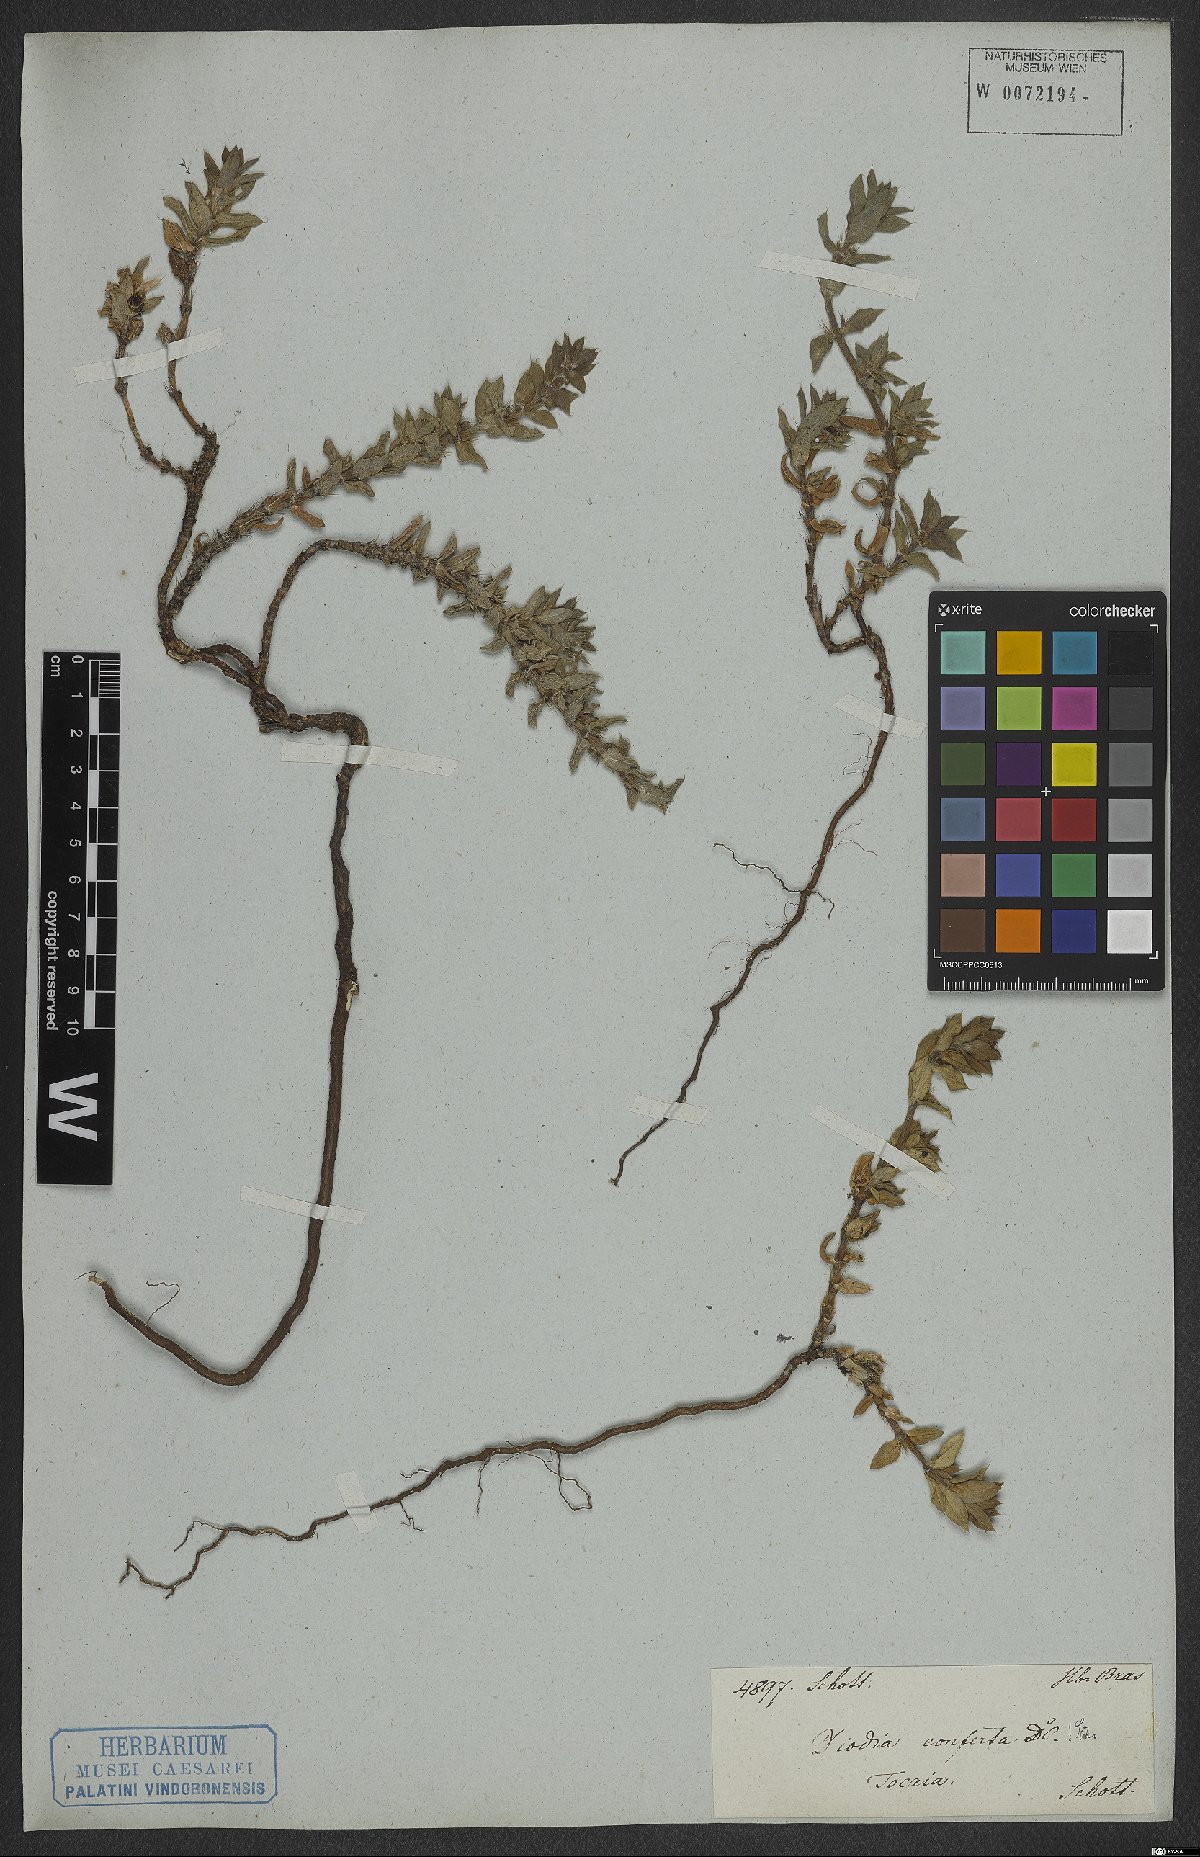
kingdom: Plantae
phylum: Tracheophyta
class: Magnoliopsida
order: Gentianales
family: Rubiaceae
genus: Hexasepalum
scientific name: Hexasepalum apiculatum
